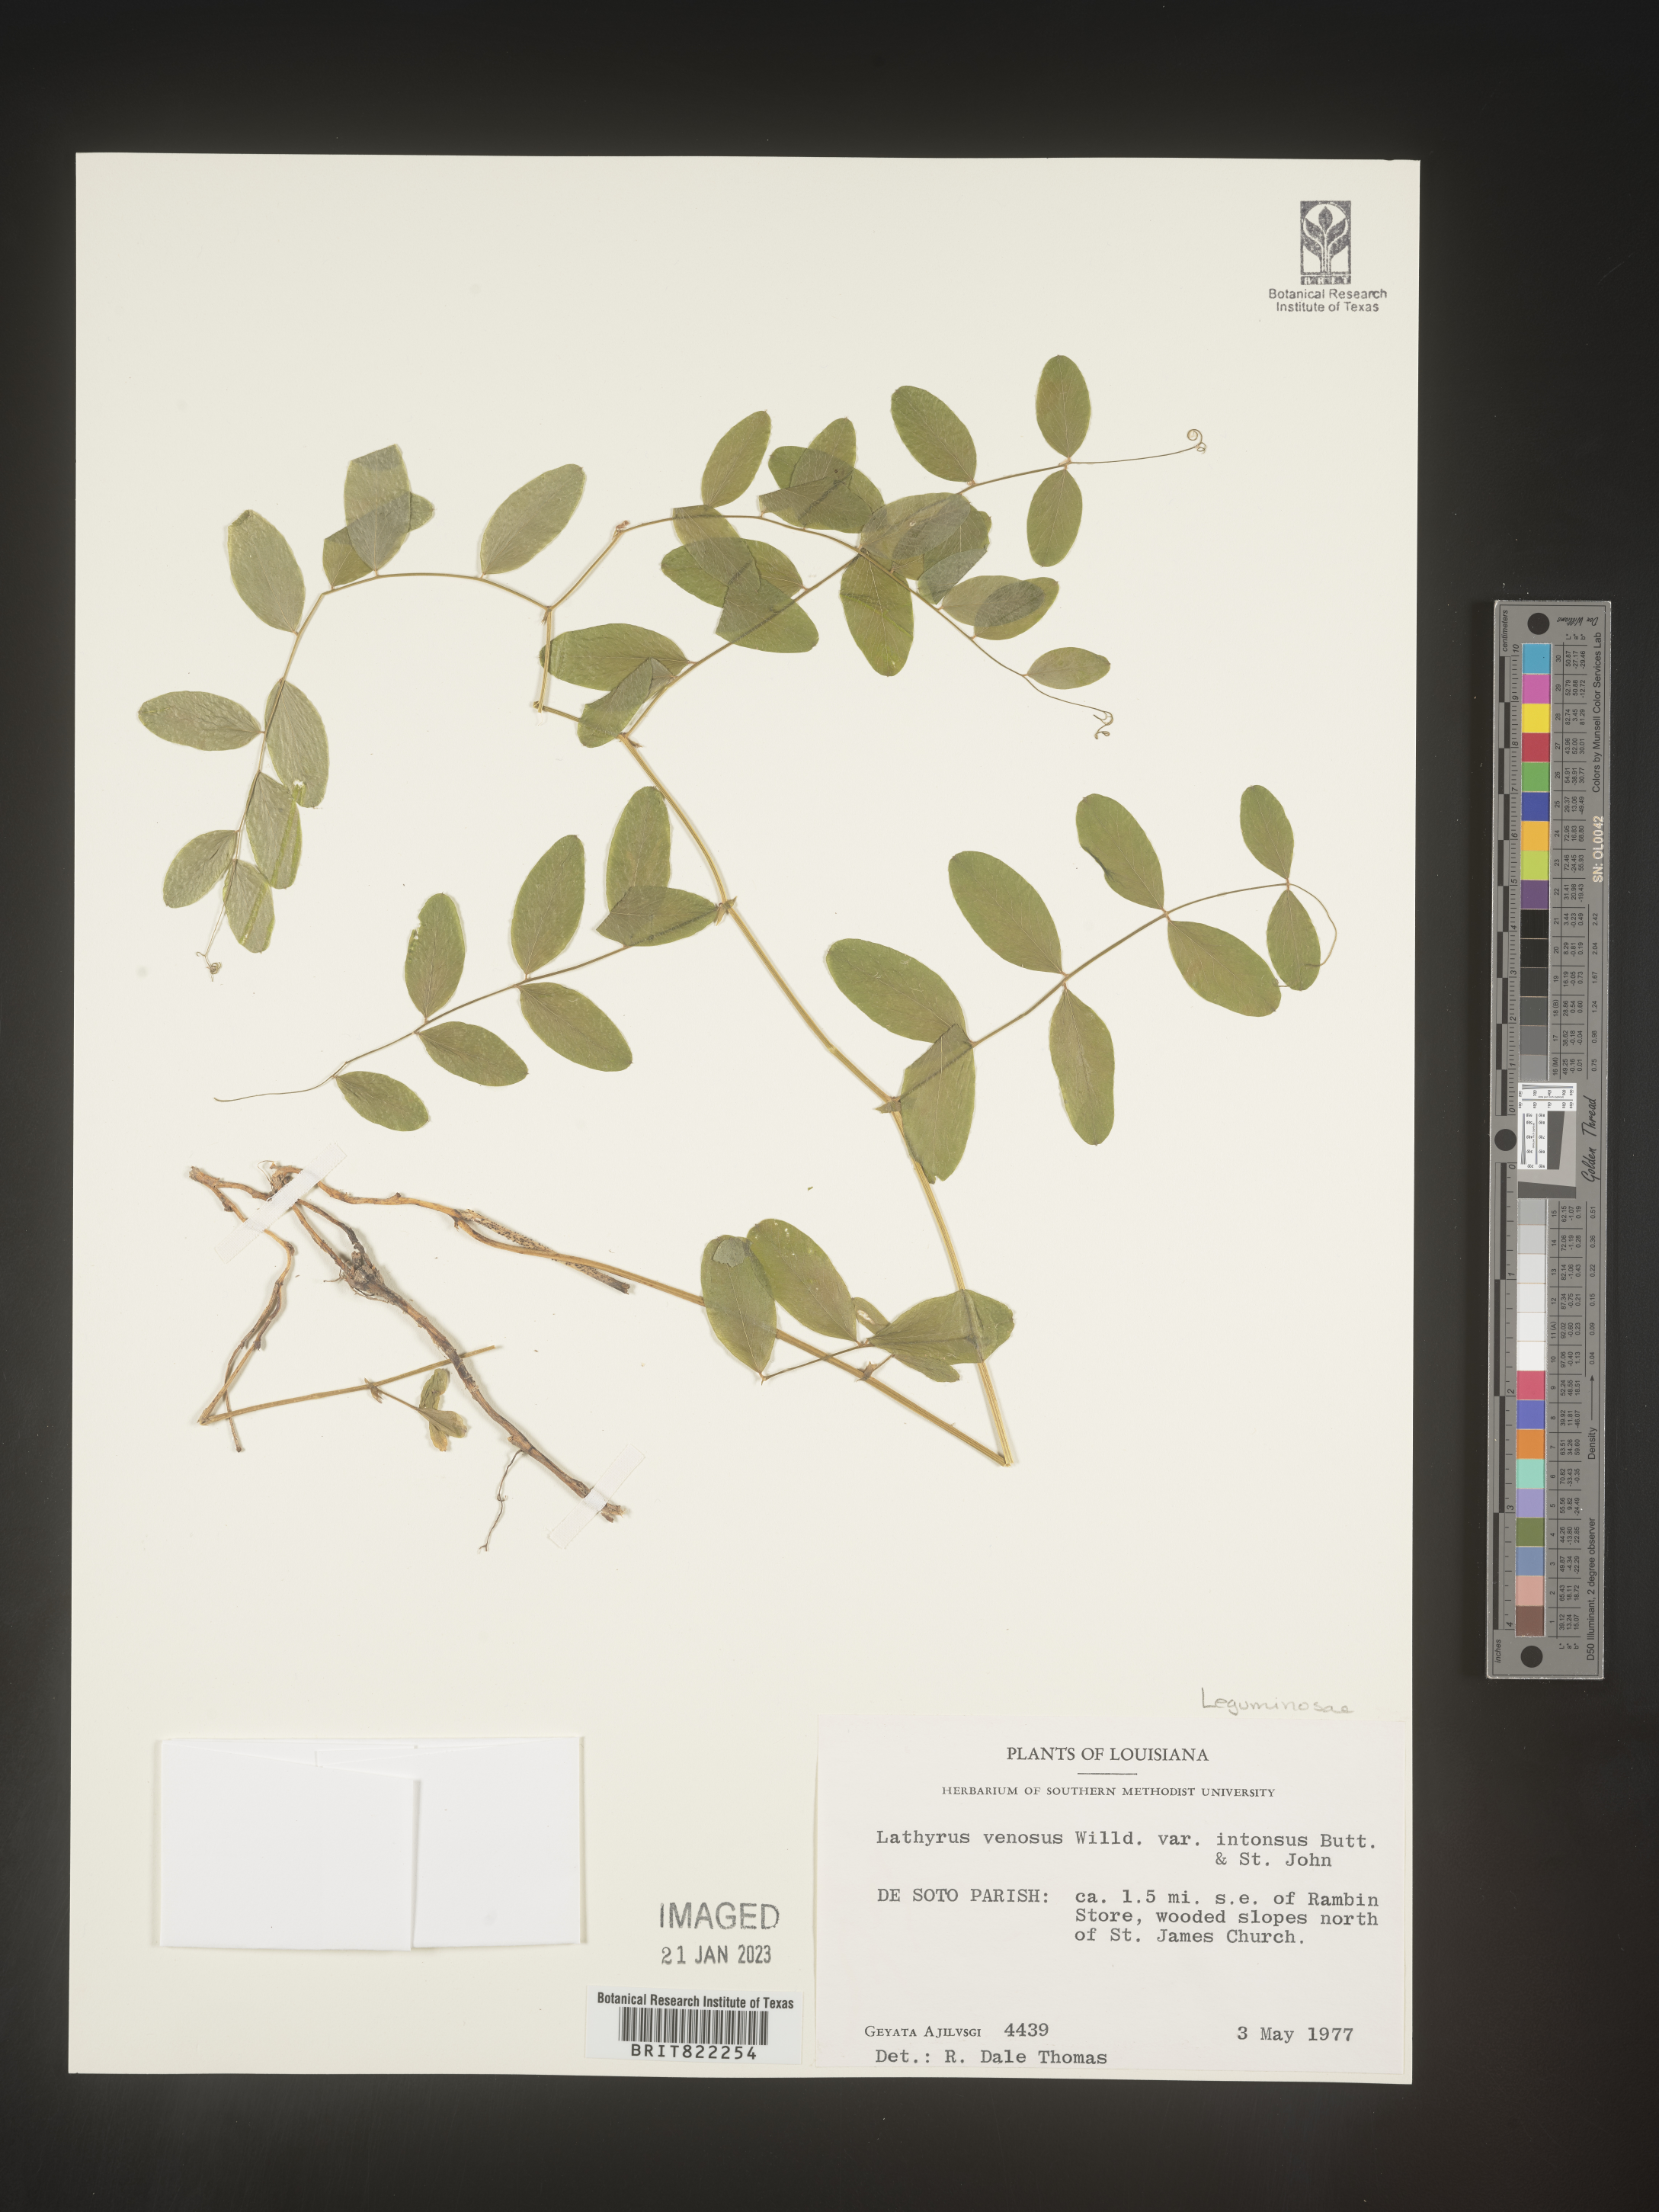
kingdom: Plantae
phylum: Tracheophyta
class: Magnoliopsida
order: Fabales
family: Fabaceae
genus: Lathyrus
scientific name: Lathyrus venosus
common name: Forest-pea
